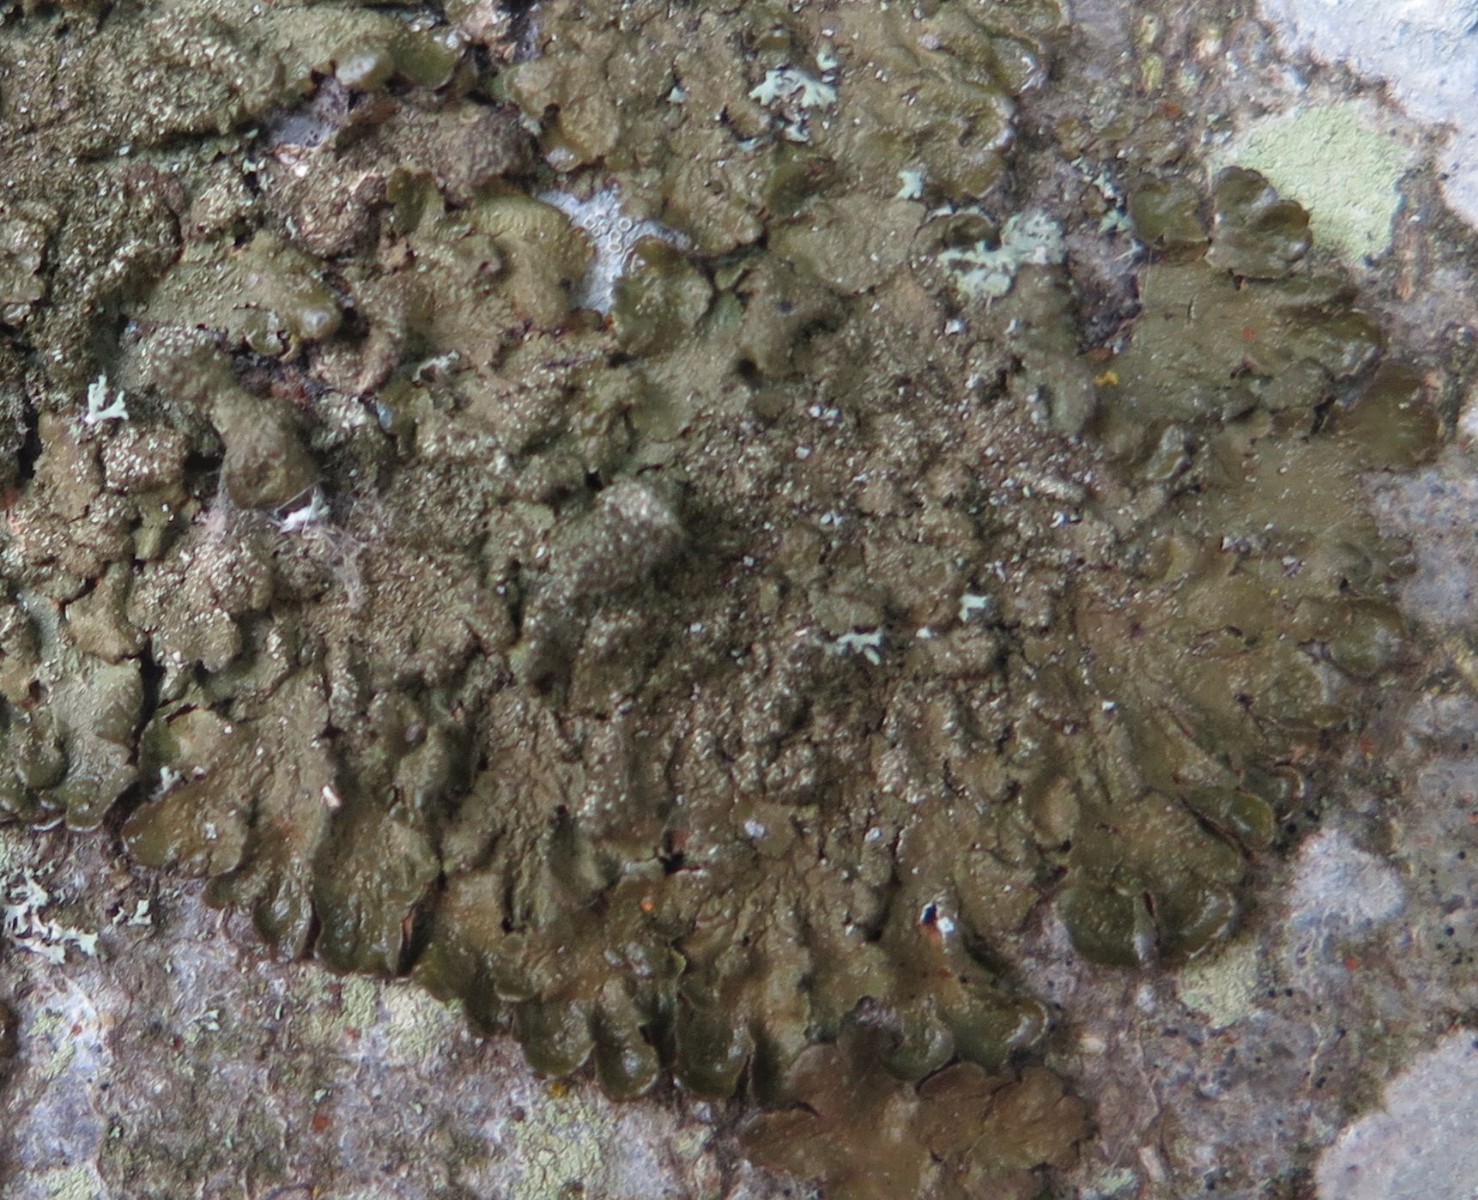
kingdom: Fungi
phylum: Ascomycota
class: Lecanoromycetes
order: Lecanorales
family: Parmeliaceae
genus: Melanelixia
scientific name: Melanelixia glabratula
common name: glinsende skållav
